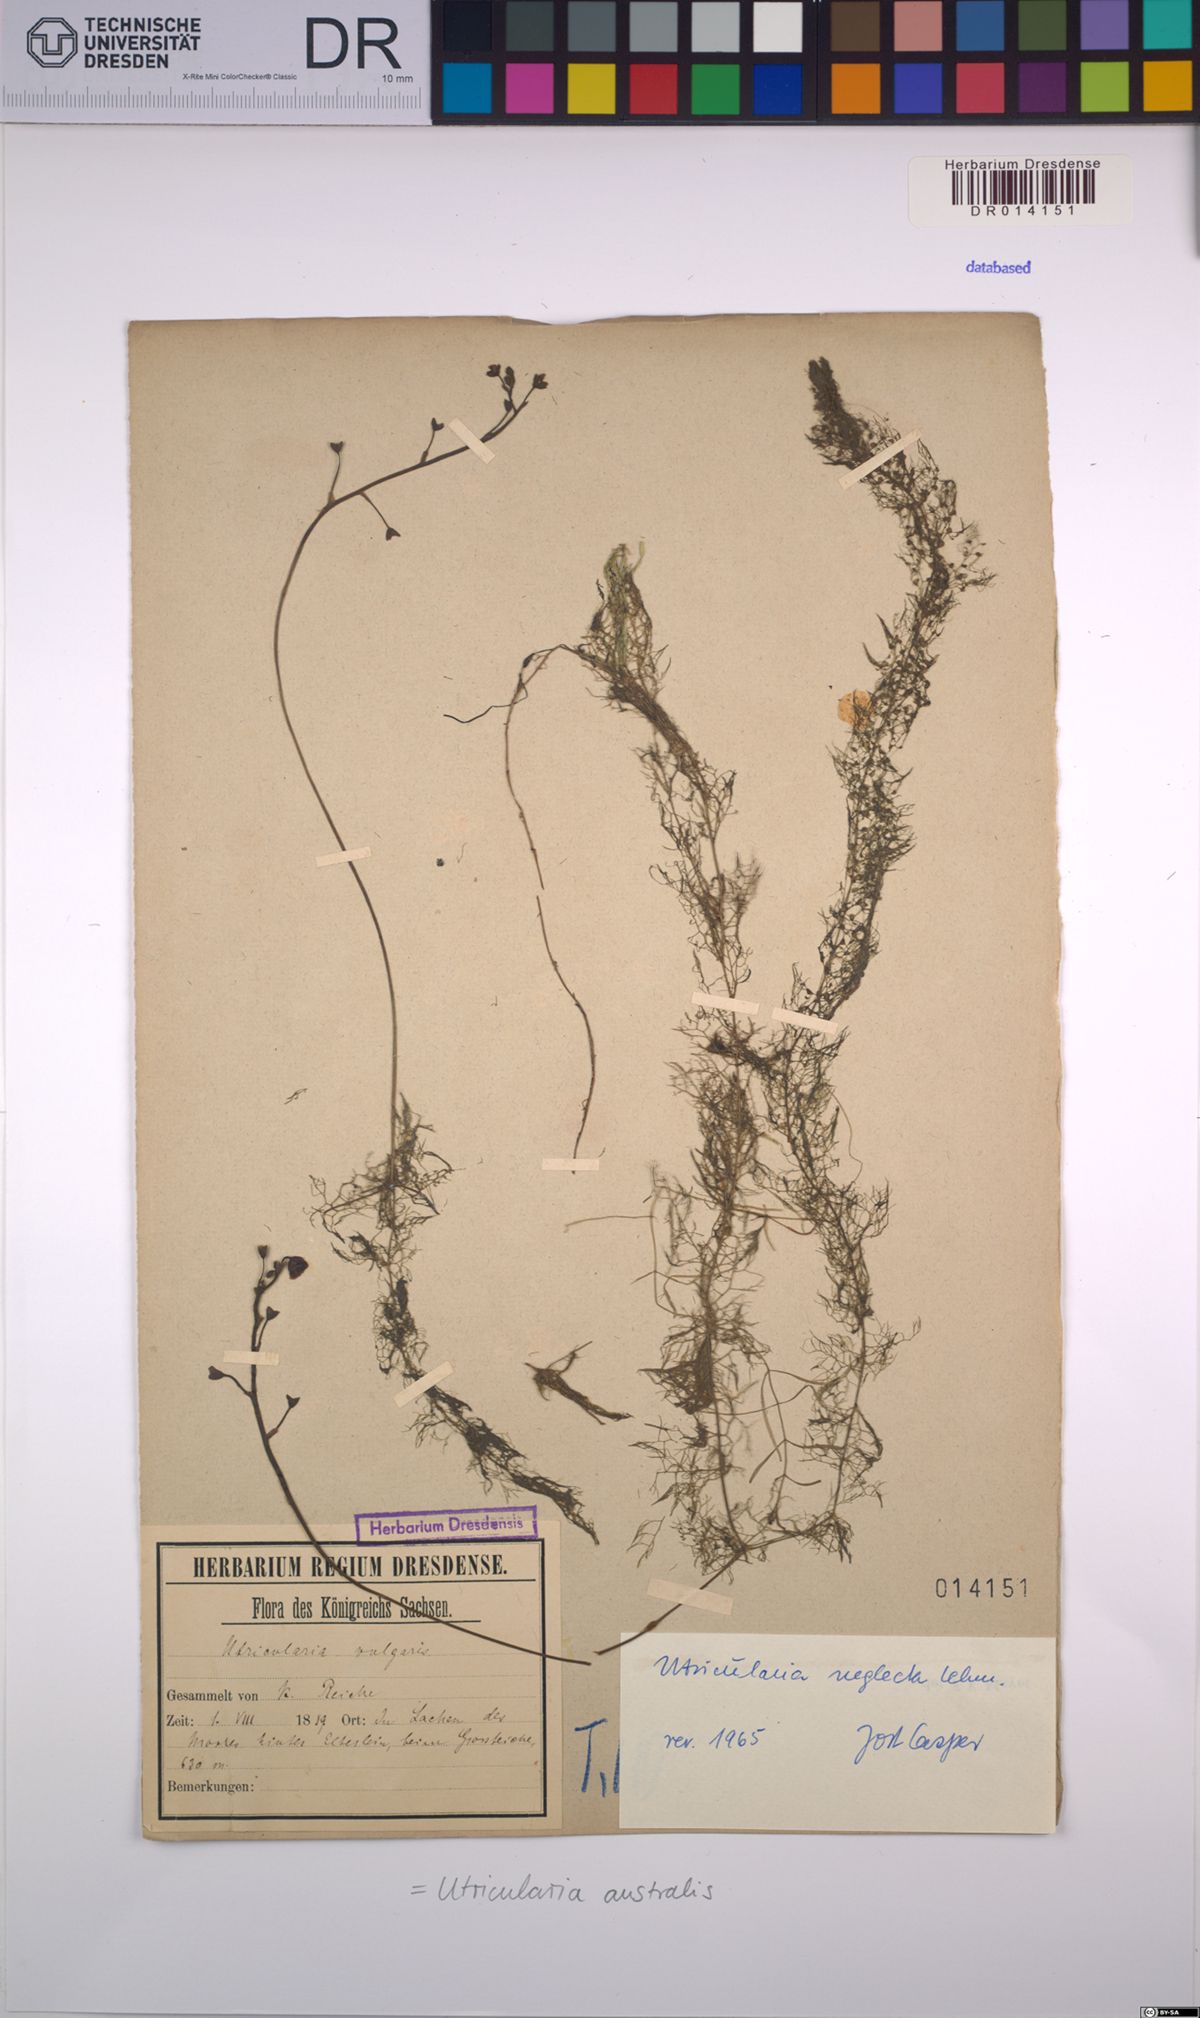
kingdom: Plantae
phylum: Tracheophyta
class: Magnoliopsida
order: Lamiales
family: Lentibulariaceae
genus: Utricularia
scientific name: Utricularia australis
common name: Bladderwort
